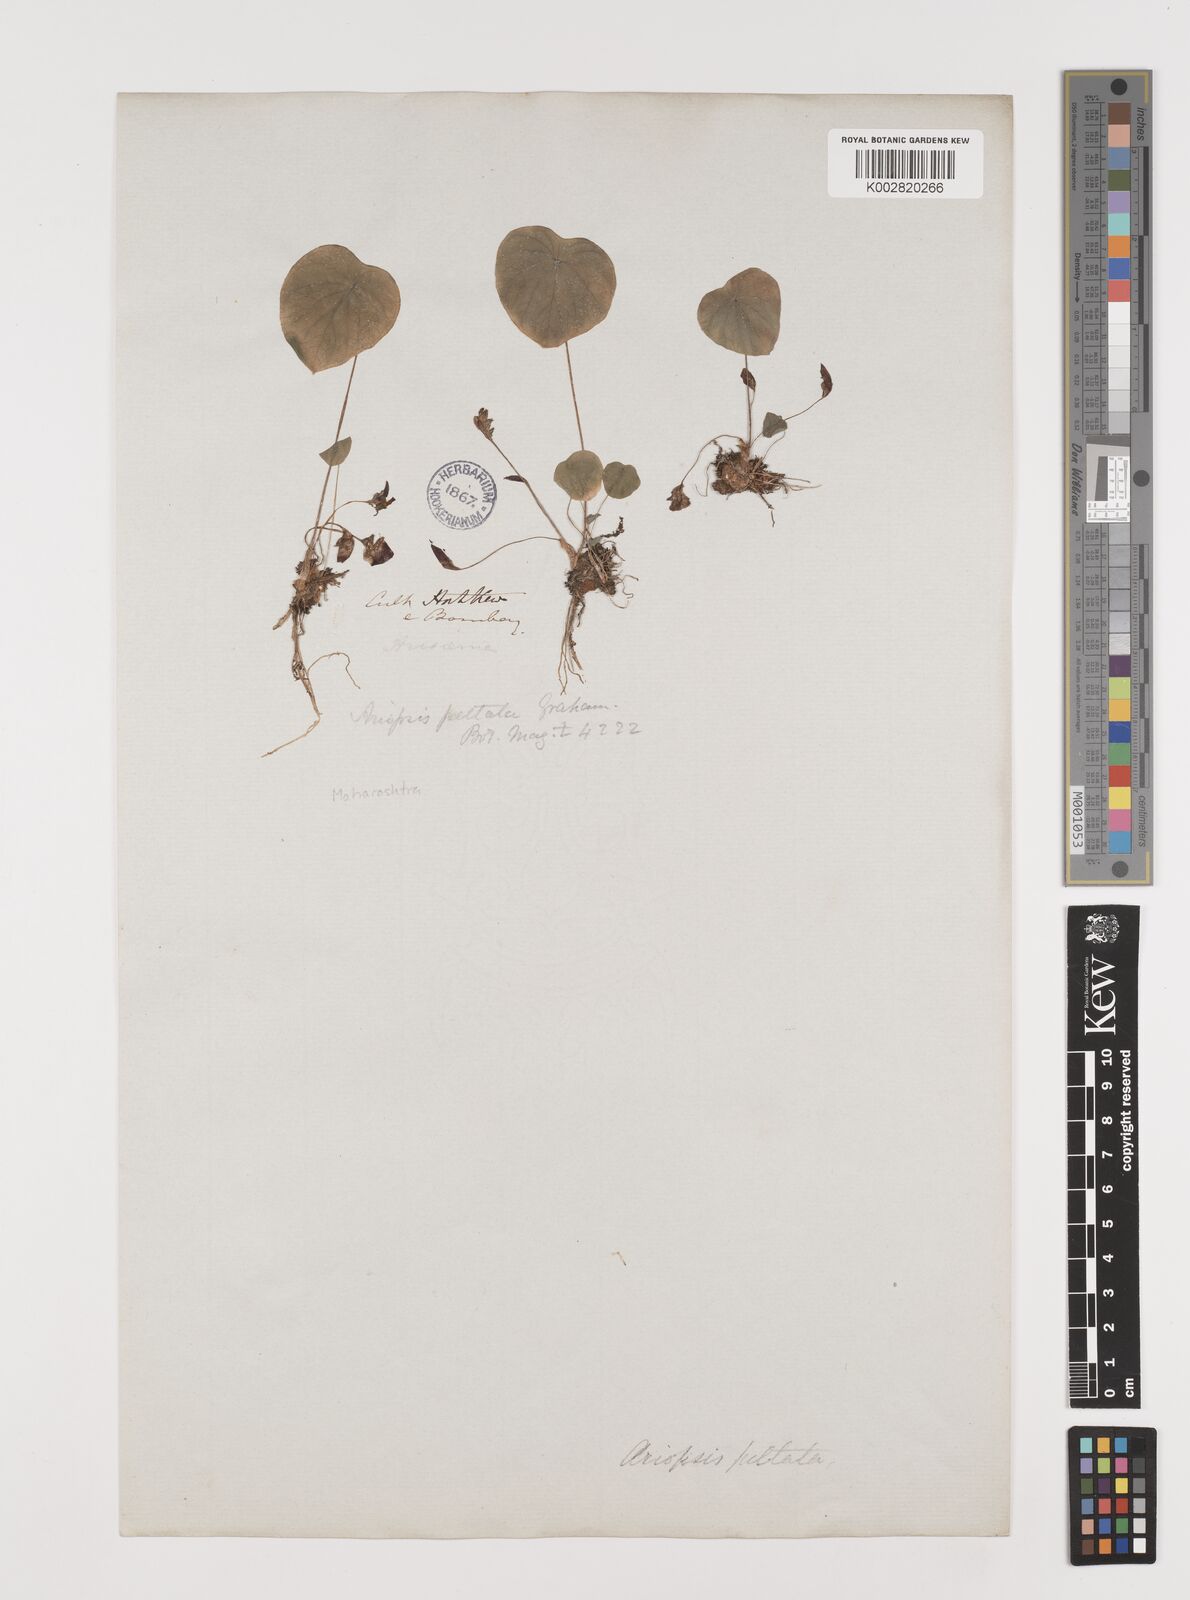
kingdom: Plantae
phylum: Tracheophyta
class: Liliopsida
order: Alismatales
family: Araceae
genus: Ariopsis
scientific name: Ariopsis peltata
